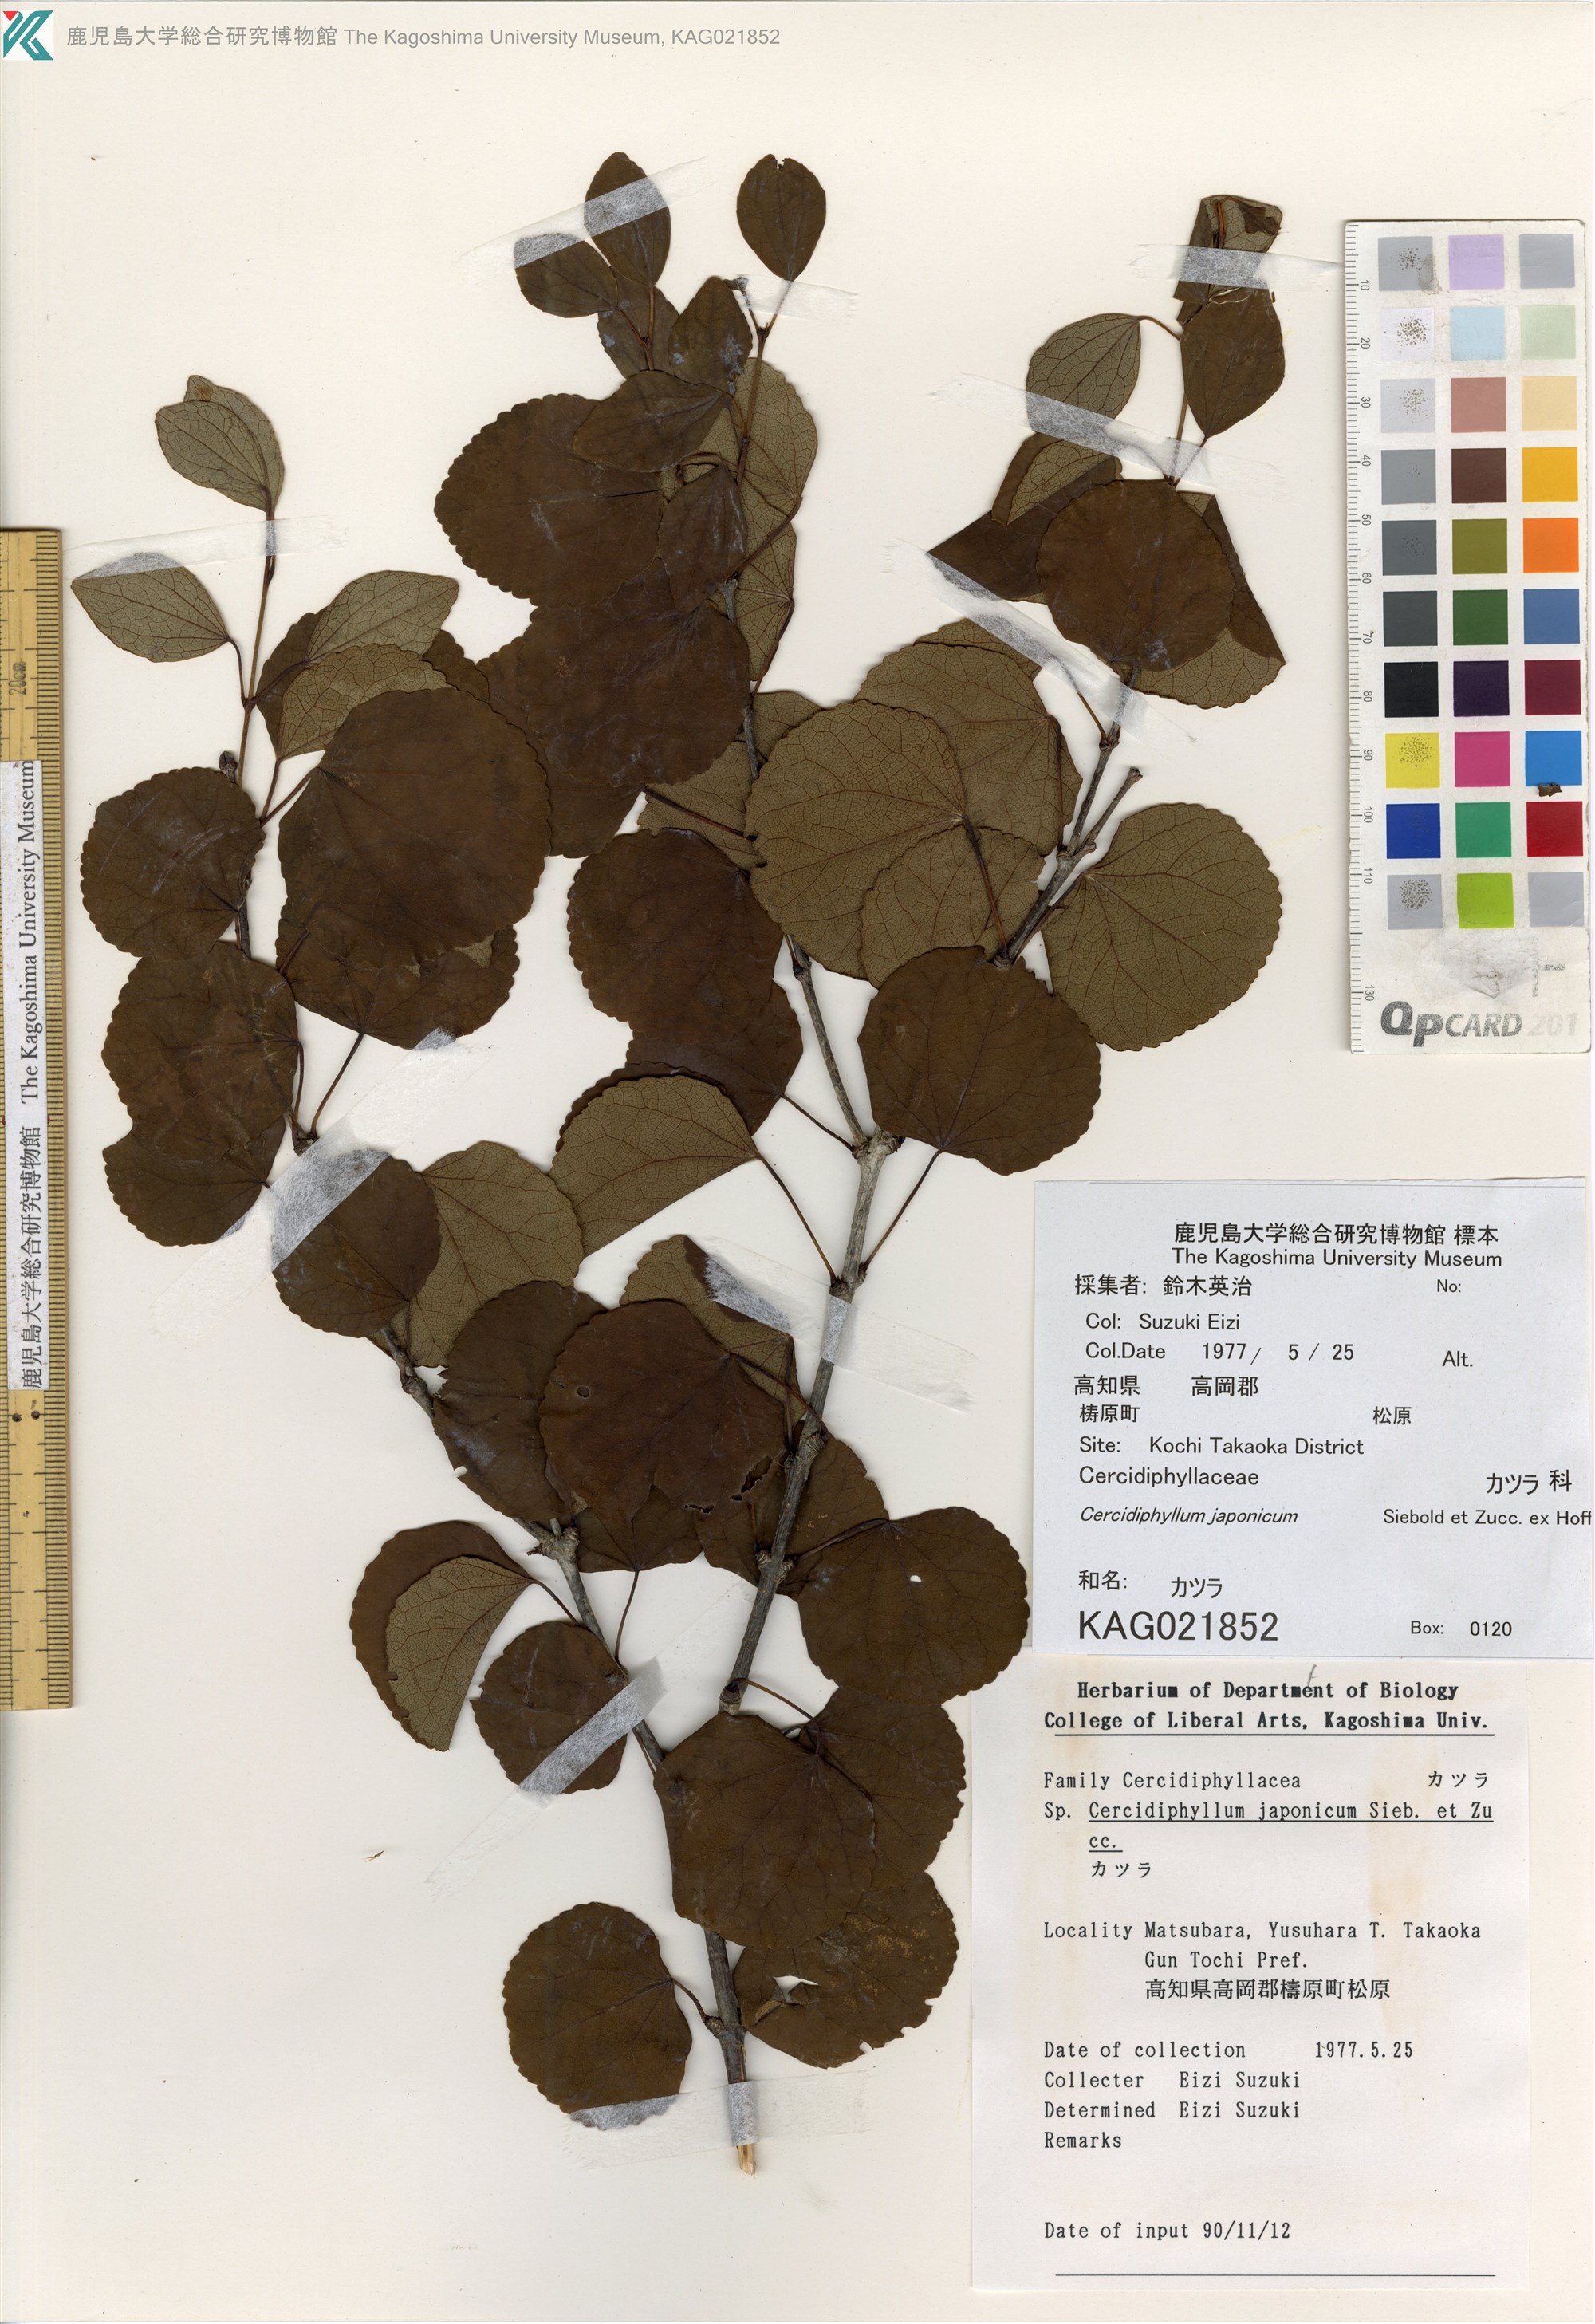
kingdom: Plantae
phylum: Tracheophyta
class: Magnoliopsida
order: Saxifragales
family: Cercidiphyllaceae
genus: Cercidiphyllum
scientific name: Cercidiphyllum japonicum
